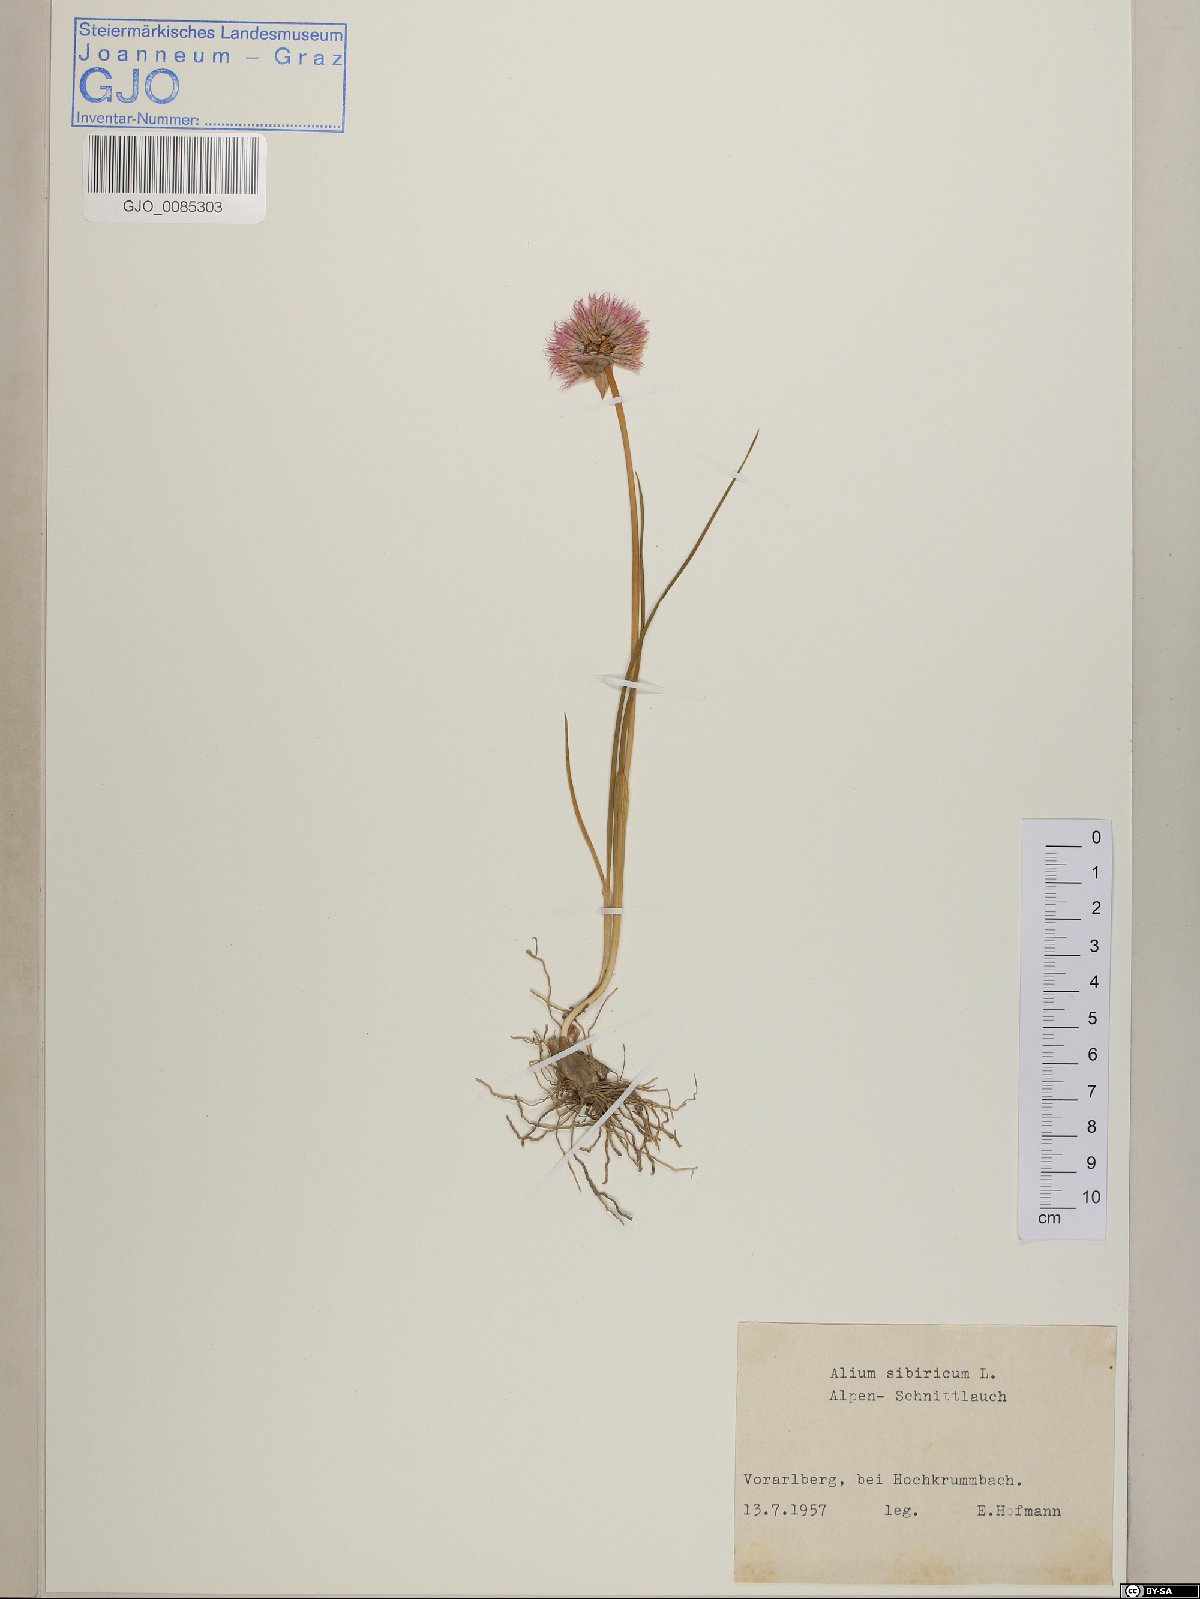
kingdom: Plantae
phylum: Tracheophyta
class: Liliopsida
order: Asparagales
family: Amaryllidaceae
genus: Allium
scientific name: Allium schoenoprasum
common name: Chives
